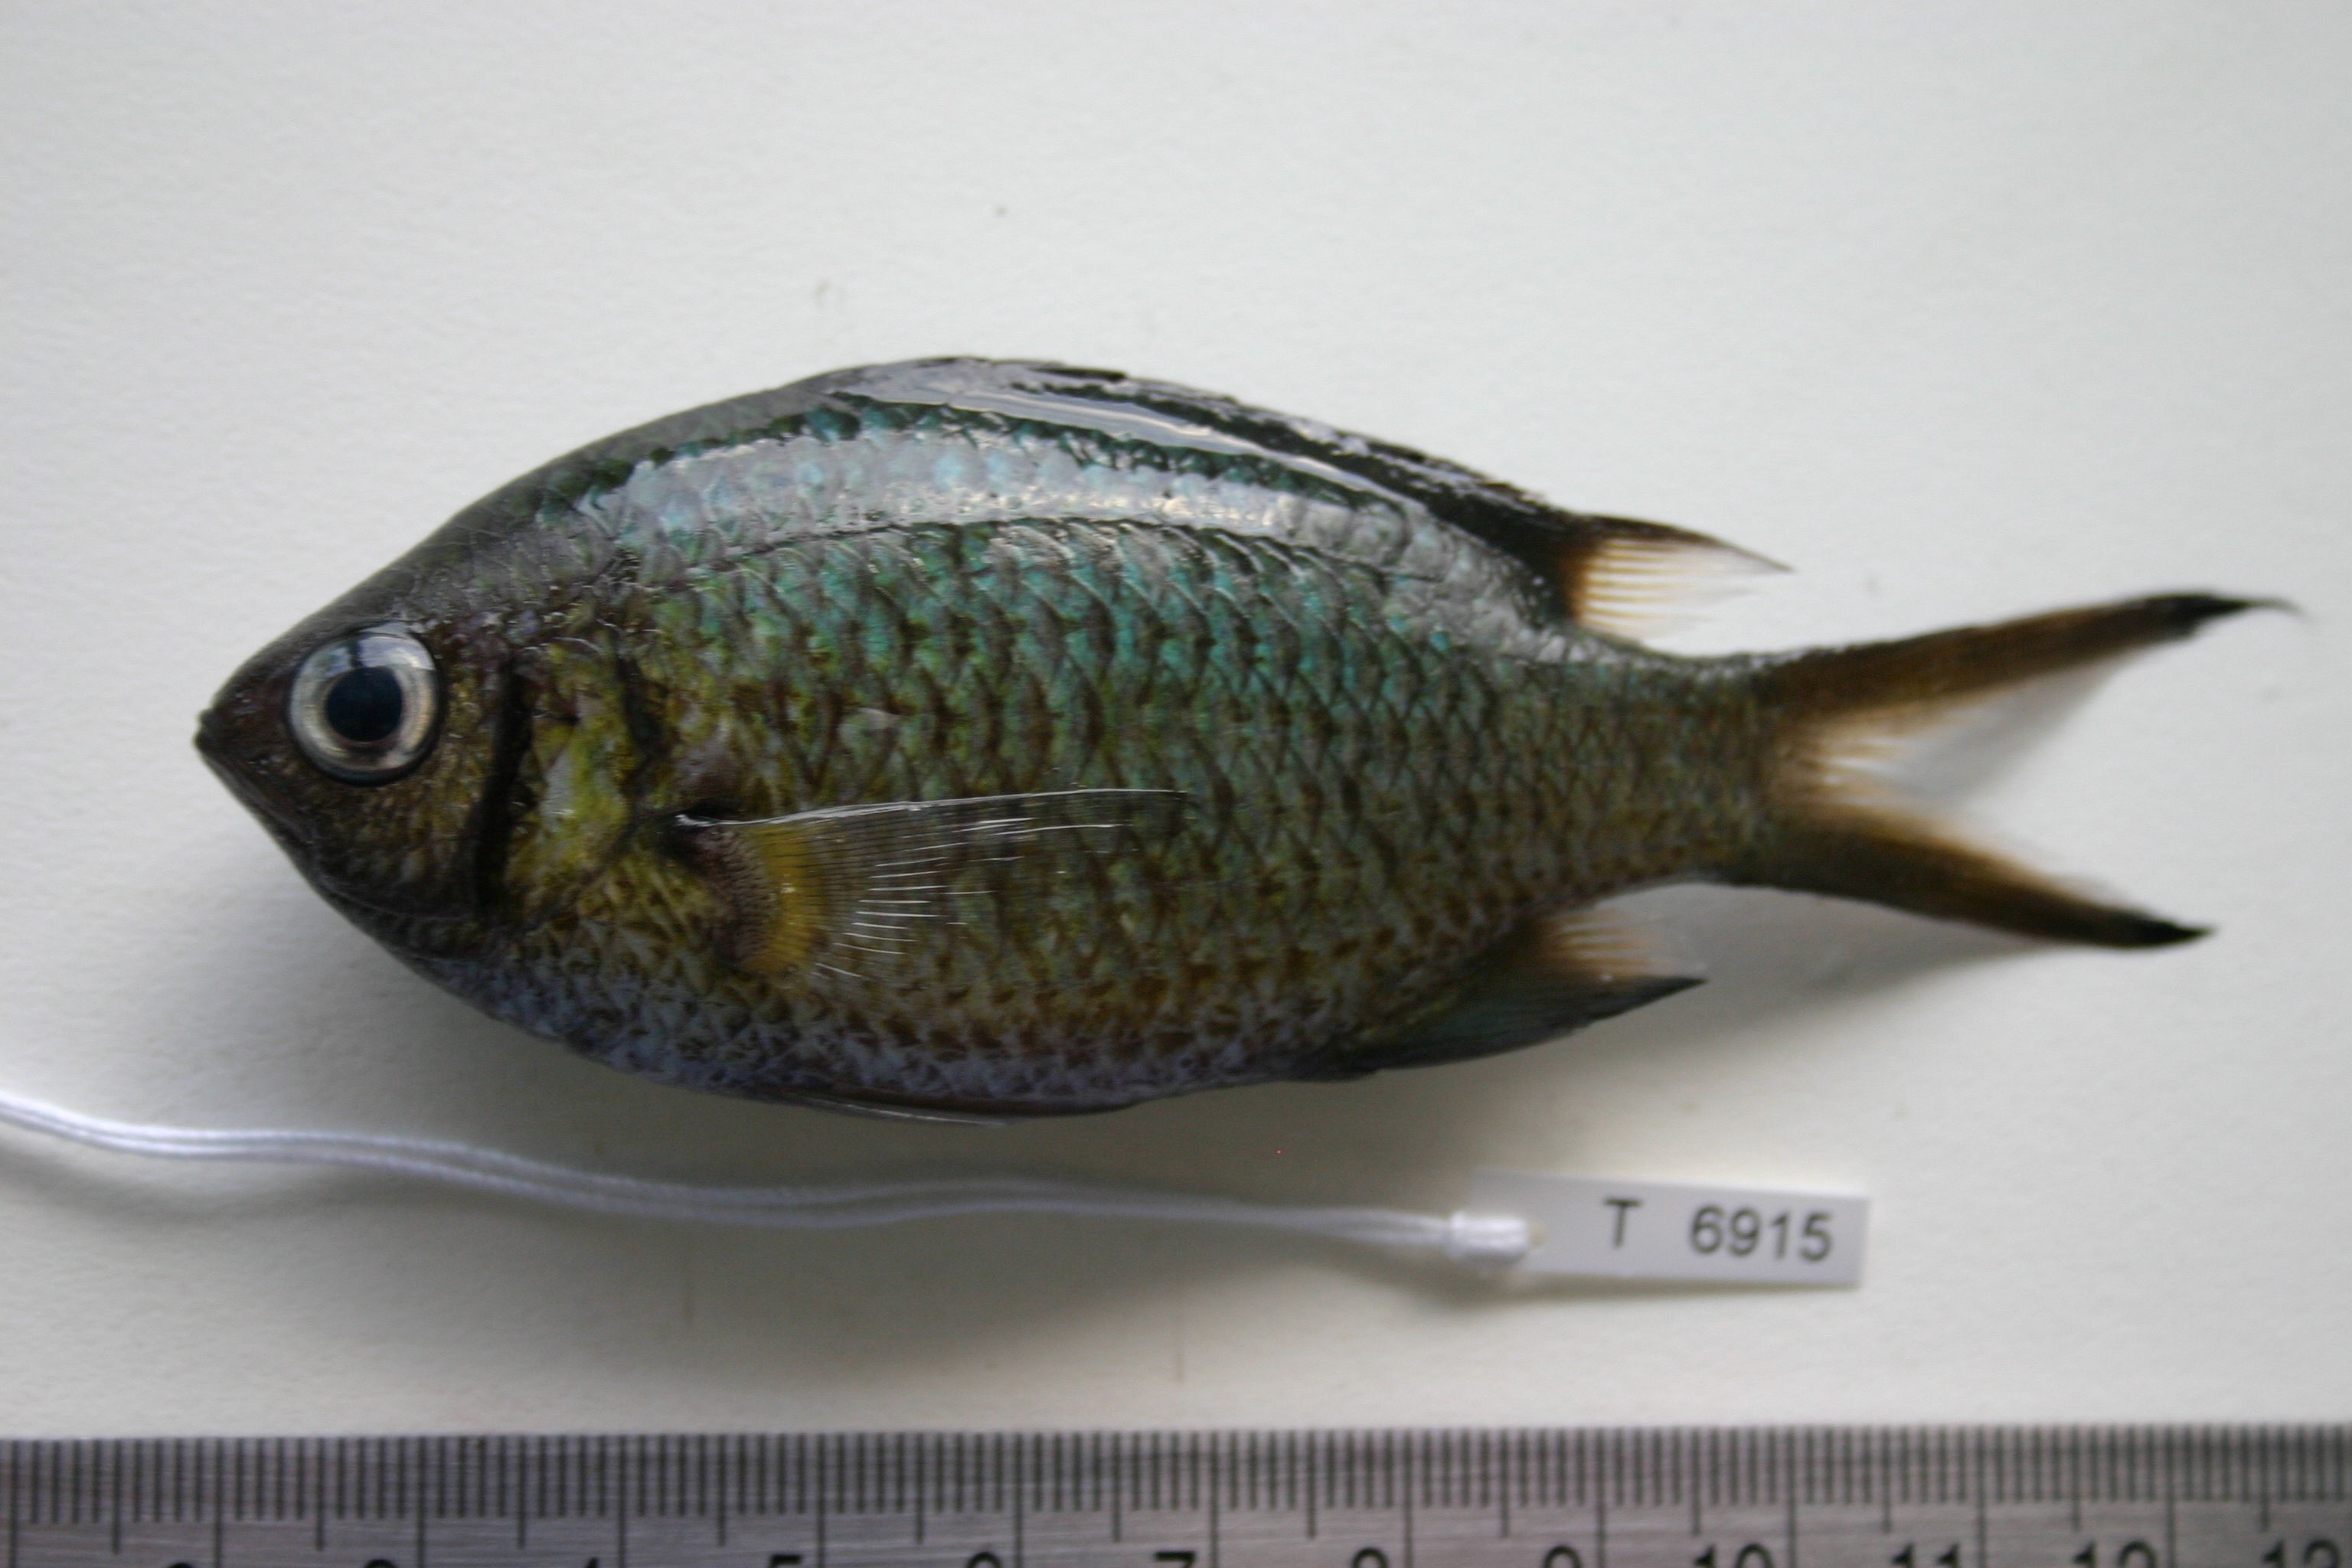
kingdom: Animalia
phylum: Chordata
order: Perciformes
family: Pomacentridae
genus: Chromis
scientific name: Chromis weberi
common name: Weber's chromis
